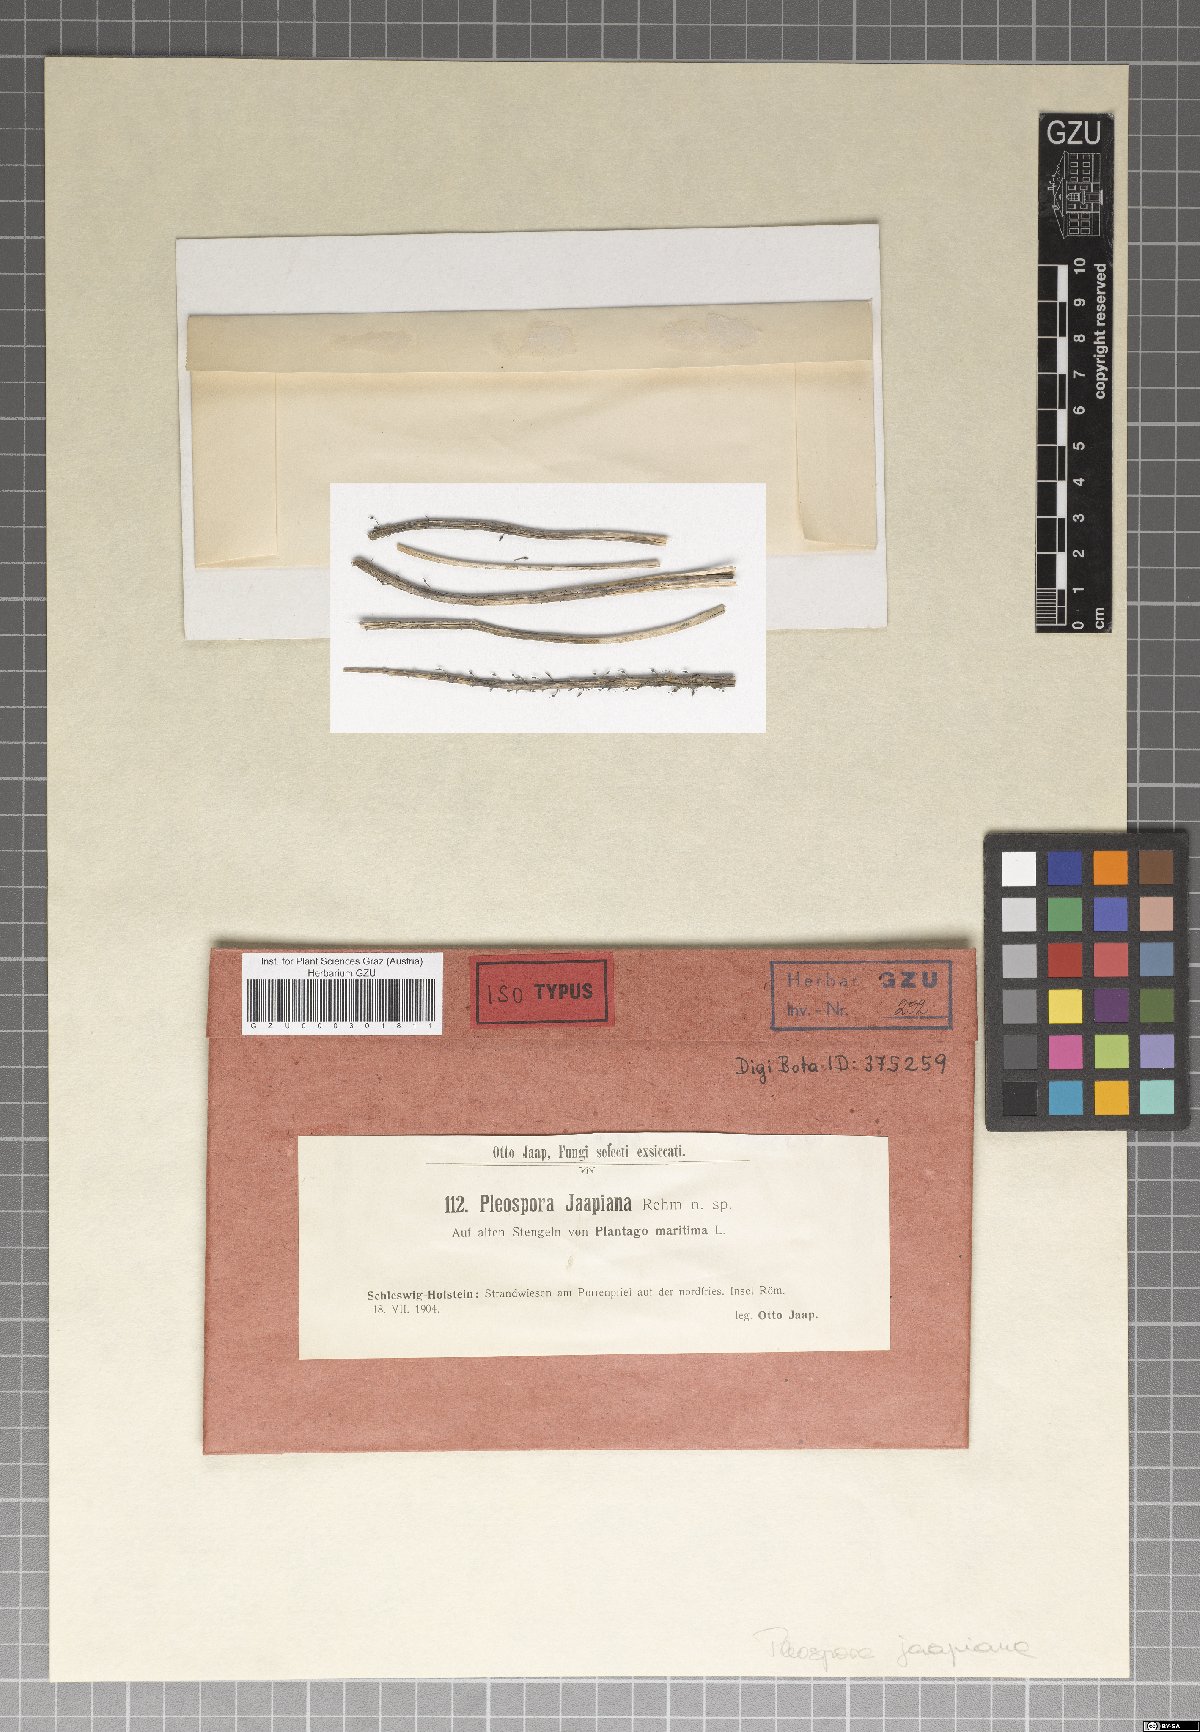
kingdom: Fungi
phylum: Ascomycota
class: Dothideomycetes
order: Pleosporales
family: Pleosporaceae
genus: Pleospora
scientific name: Pleospora
